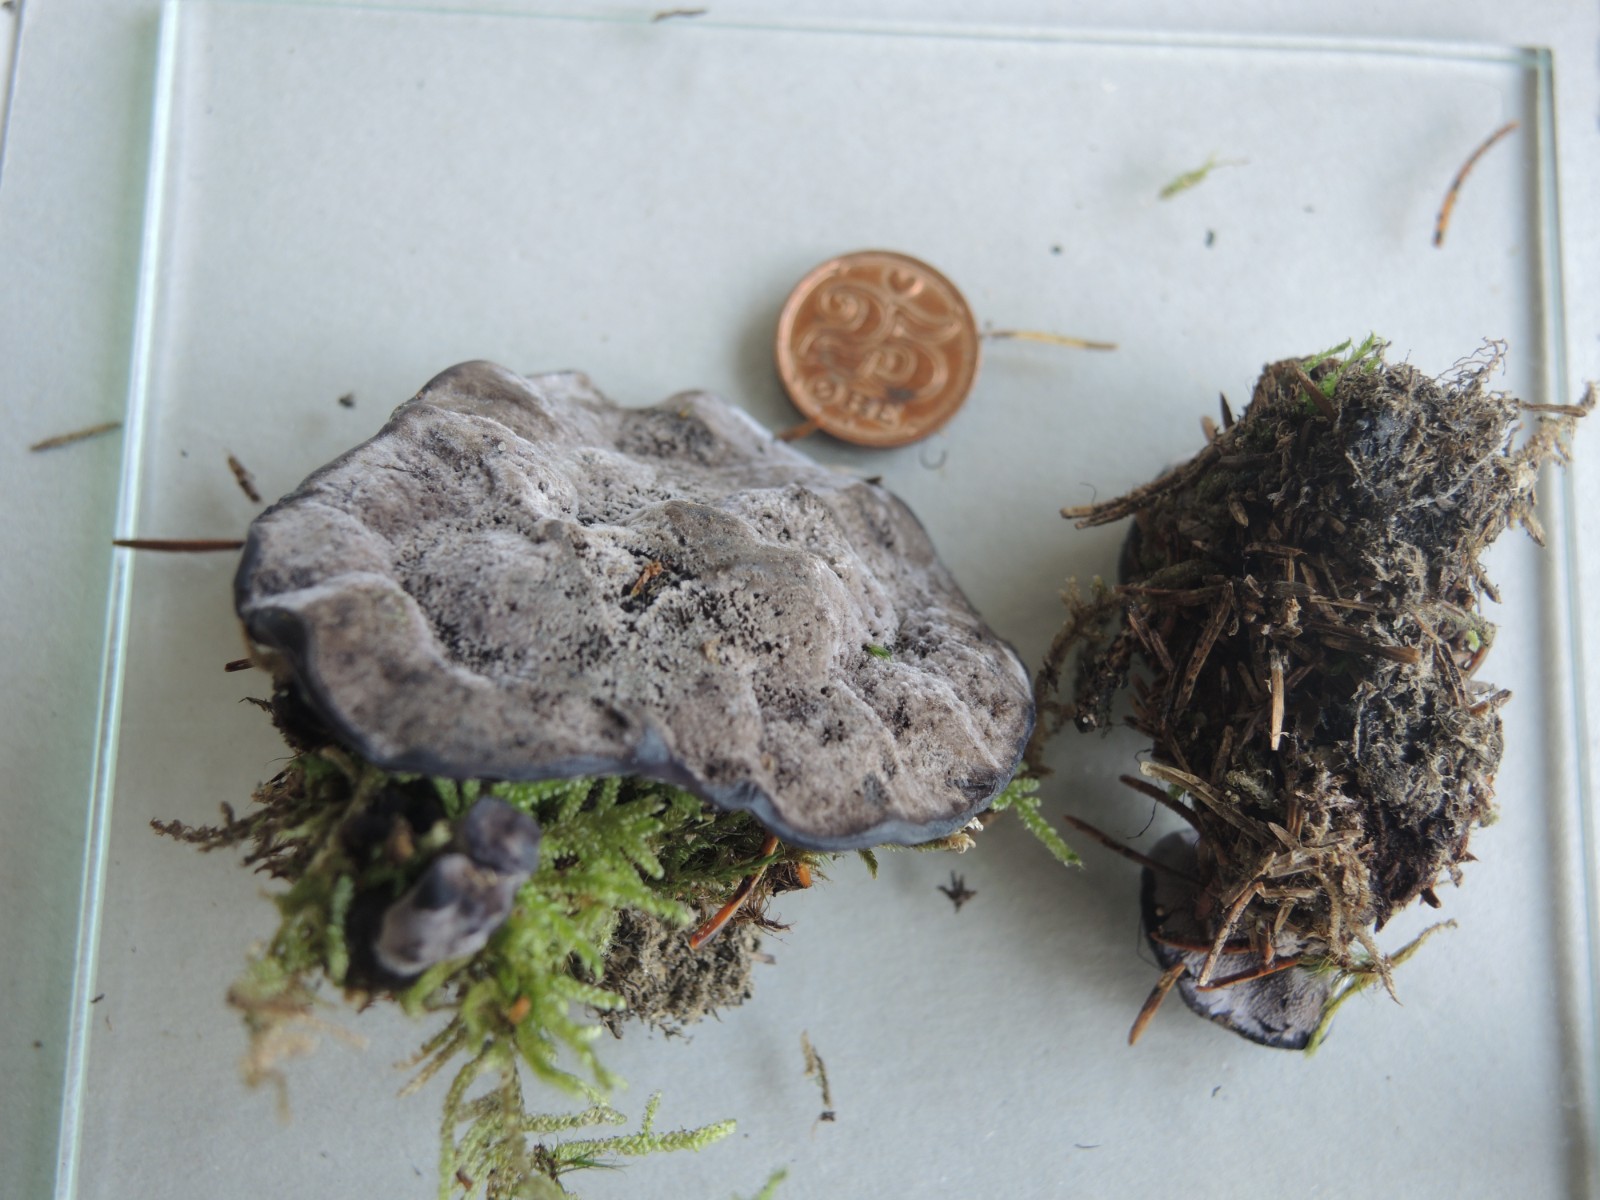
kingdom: Fungi
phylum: Basidiomycota
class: Agaricomycetes
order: Thelephorales
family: Thelephoraceae
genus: Phellodon
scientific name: Phellodon
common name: mørk duftpigsvamp
